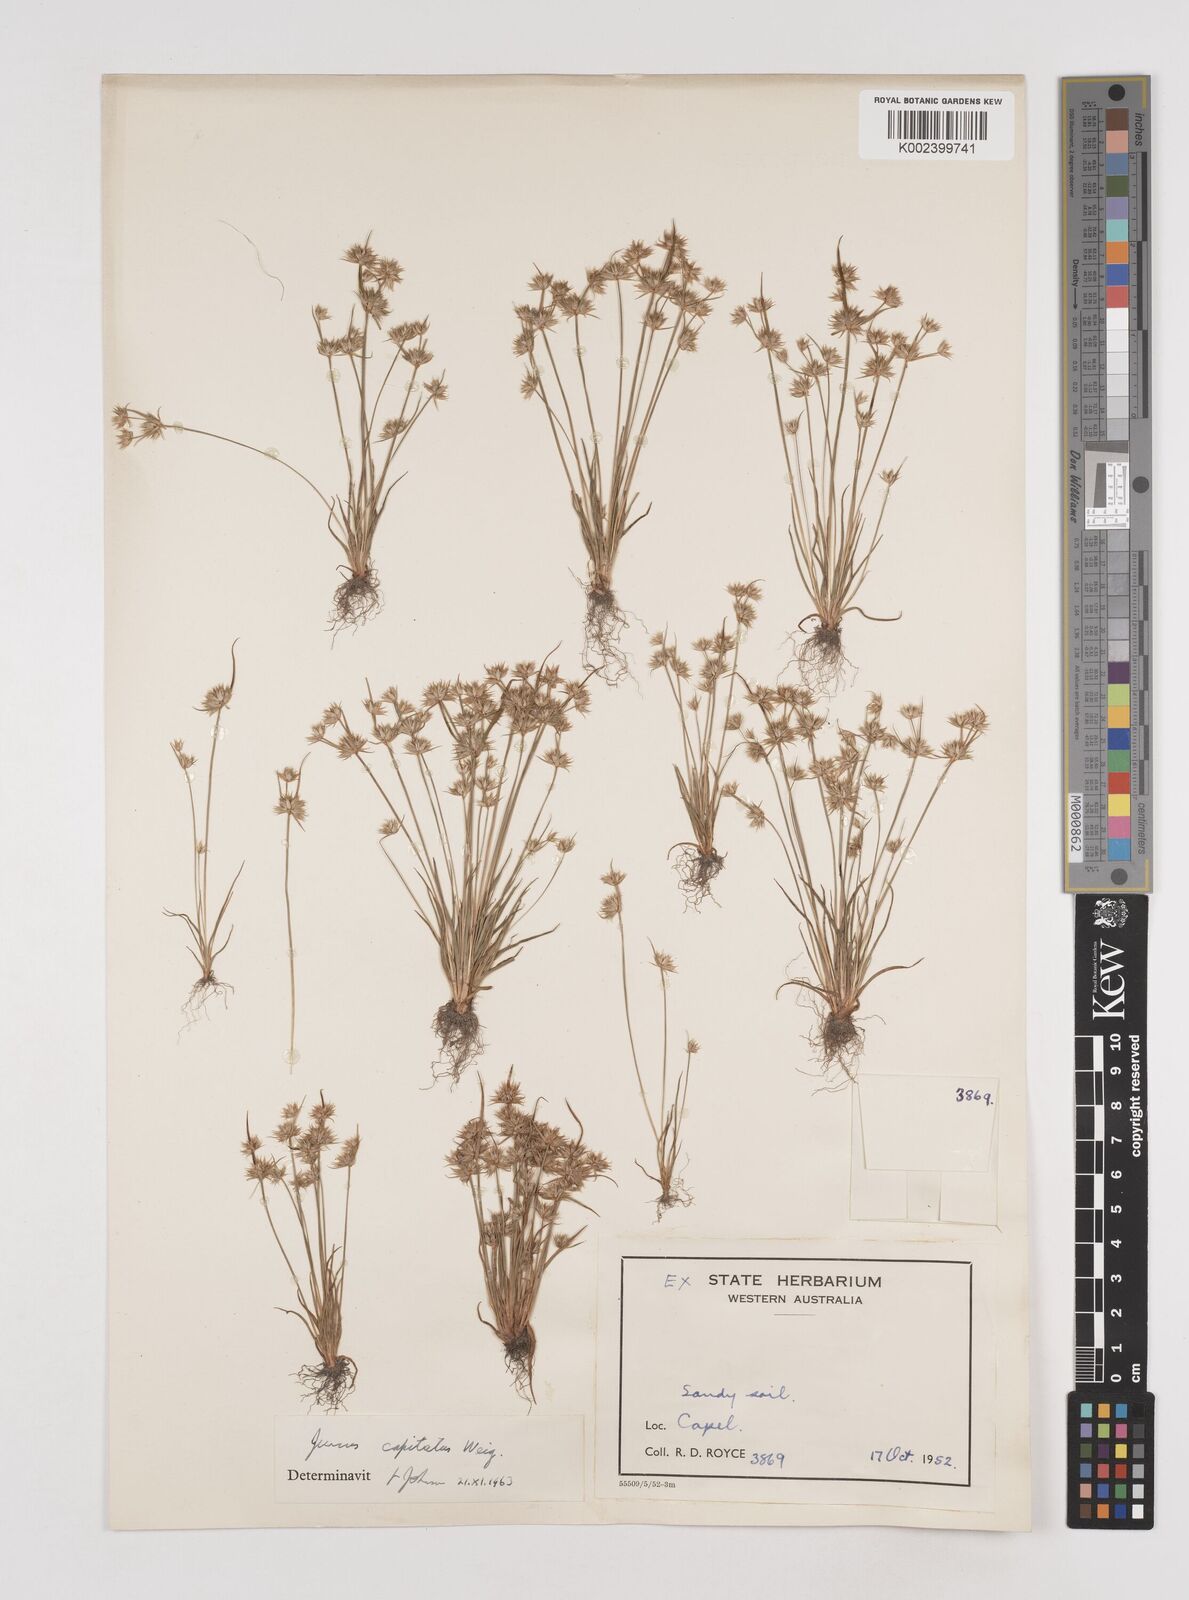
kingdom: Plantae
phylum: Tracheophyta
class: Liliopsida
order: Poales
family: Juncaceae
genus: Juncus
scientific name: Juncus capitatus
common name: Dwarf rush
